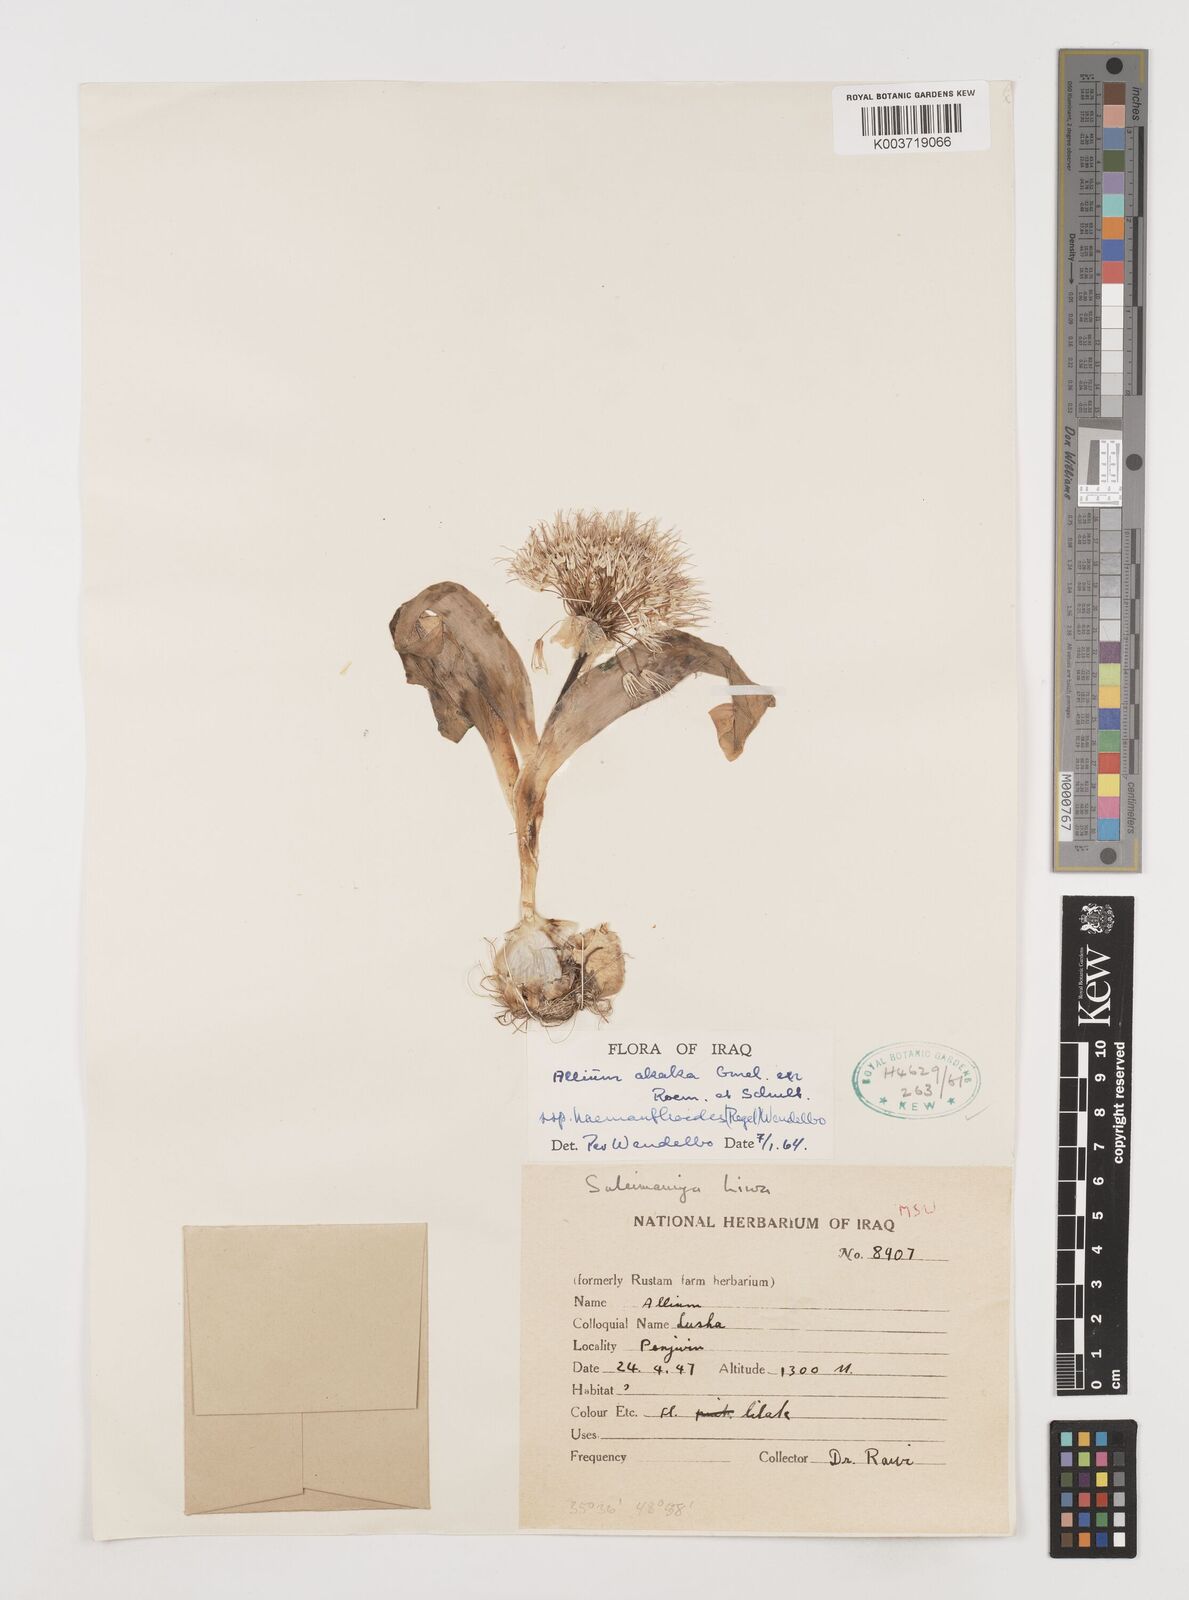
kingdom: Plantae
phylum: Tracheophyta
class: Liliopsida
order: Asparagales
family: Amaryllidaceae
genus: Allium
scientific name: Allium haemanthoides
